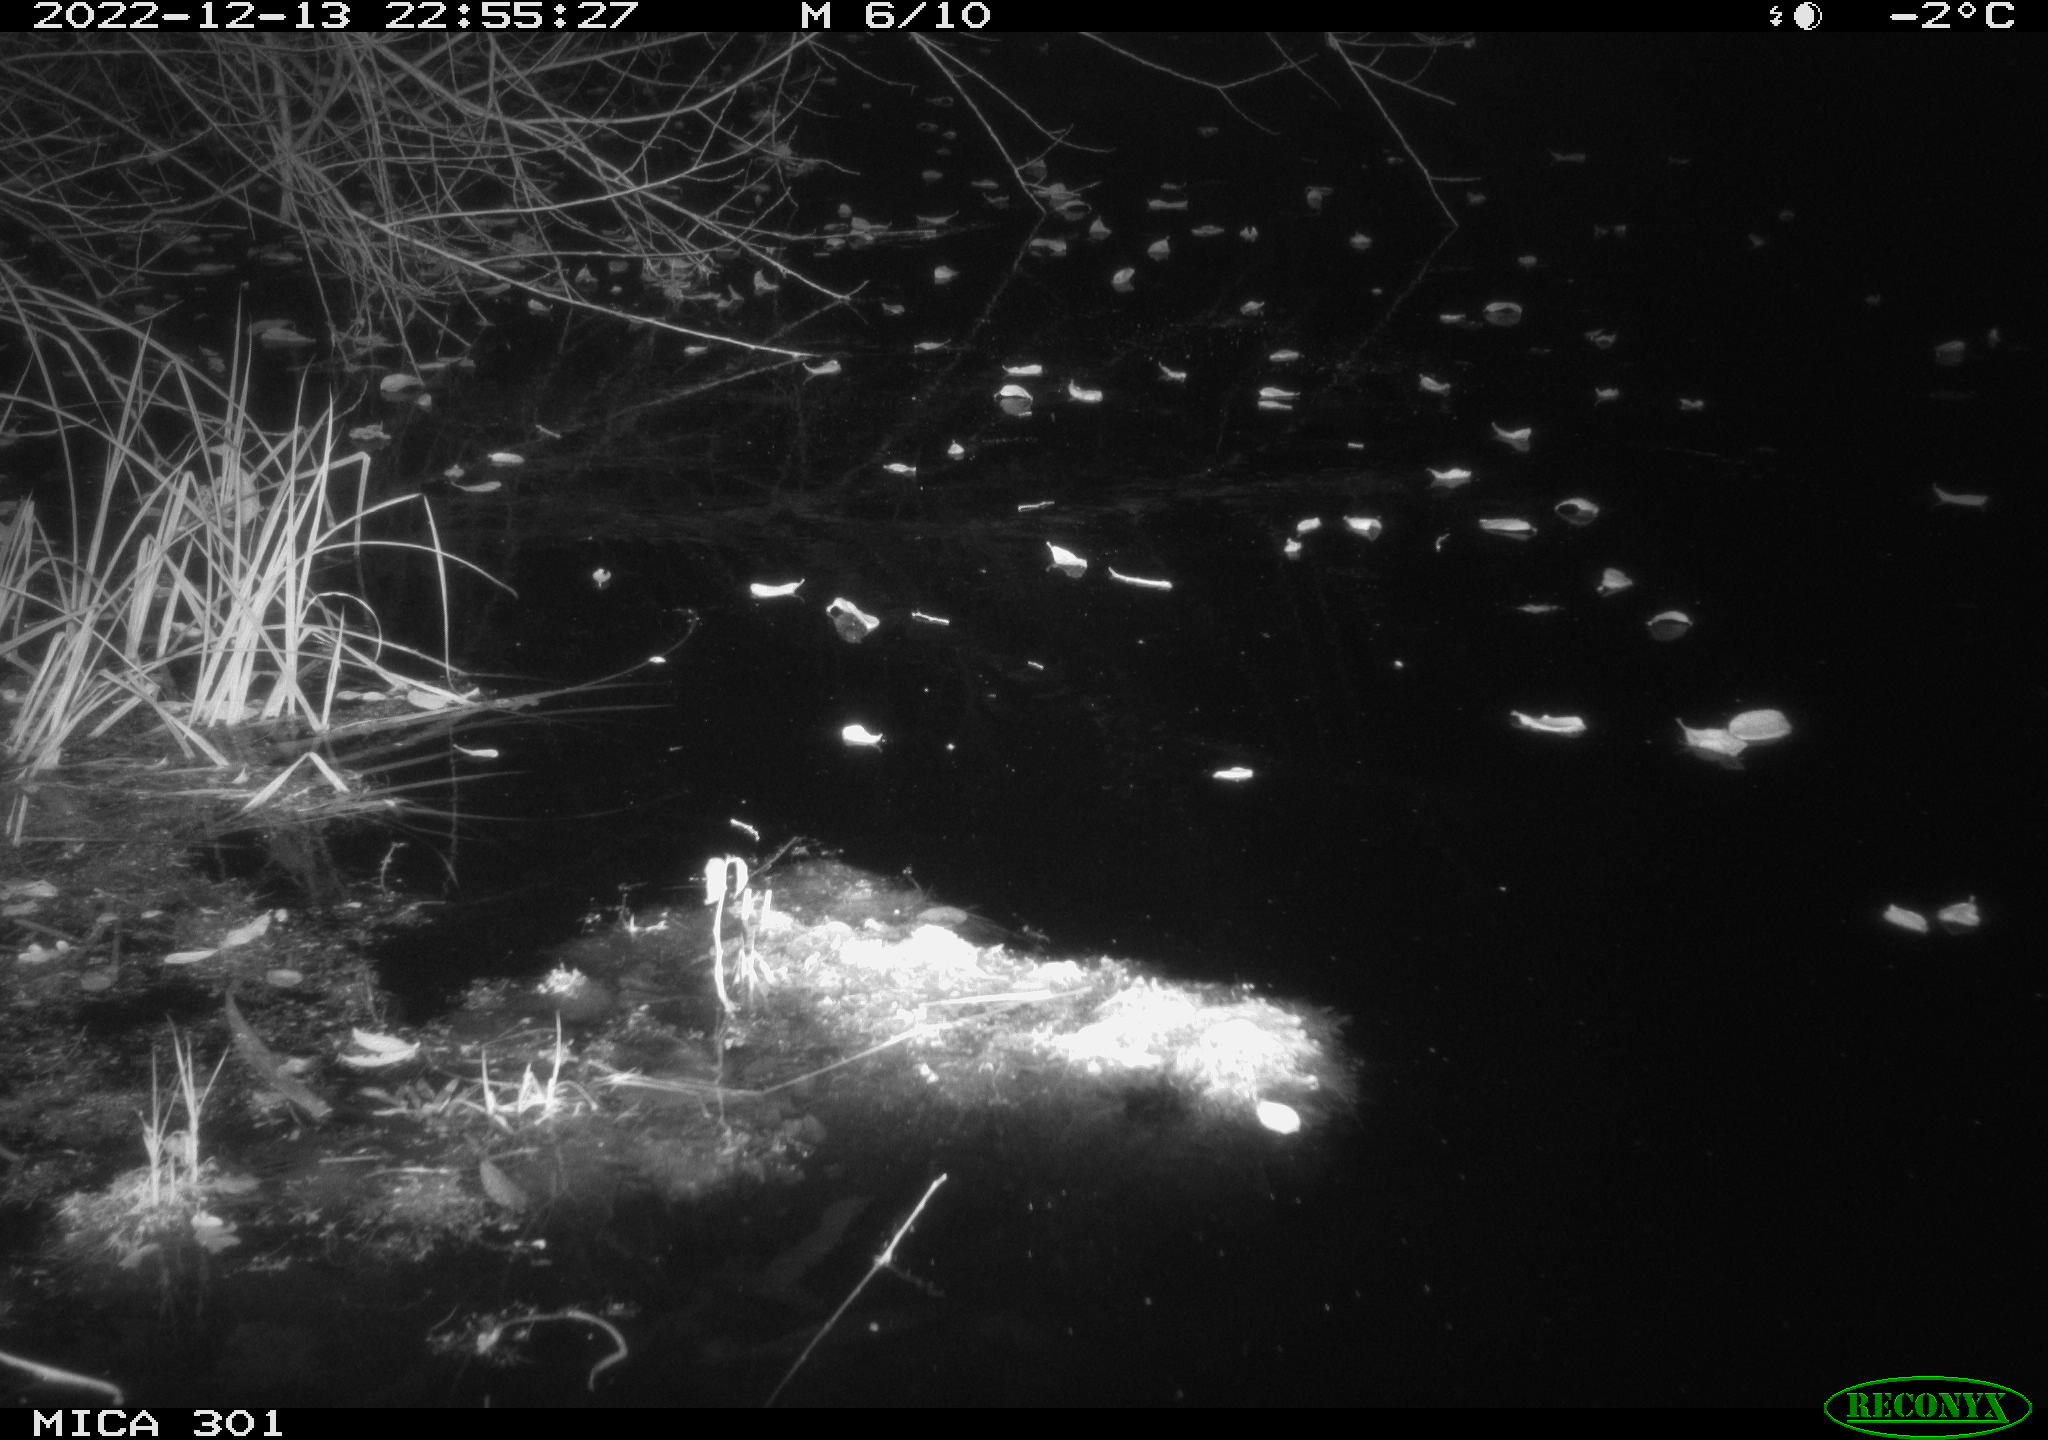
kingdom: Animalia
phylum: Chordata
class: Mammalia
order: Carnivora
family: Canidae
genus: Vulpes
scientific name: Vulpes vulpes
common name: Red fox
